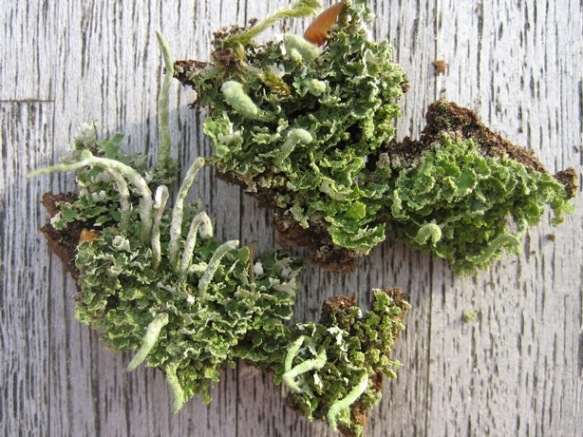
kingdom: Fungi
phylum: Ascomycota
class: Lecanoromycetes
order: Lecanorales
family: Cladoniaceae
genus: Cladonia
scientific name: Cladonia coniocraea
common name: træfods-bægerlav
